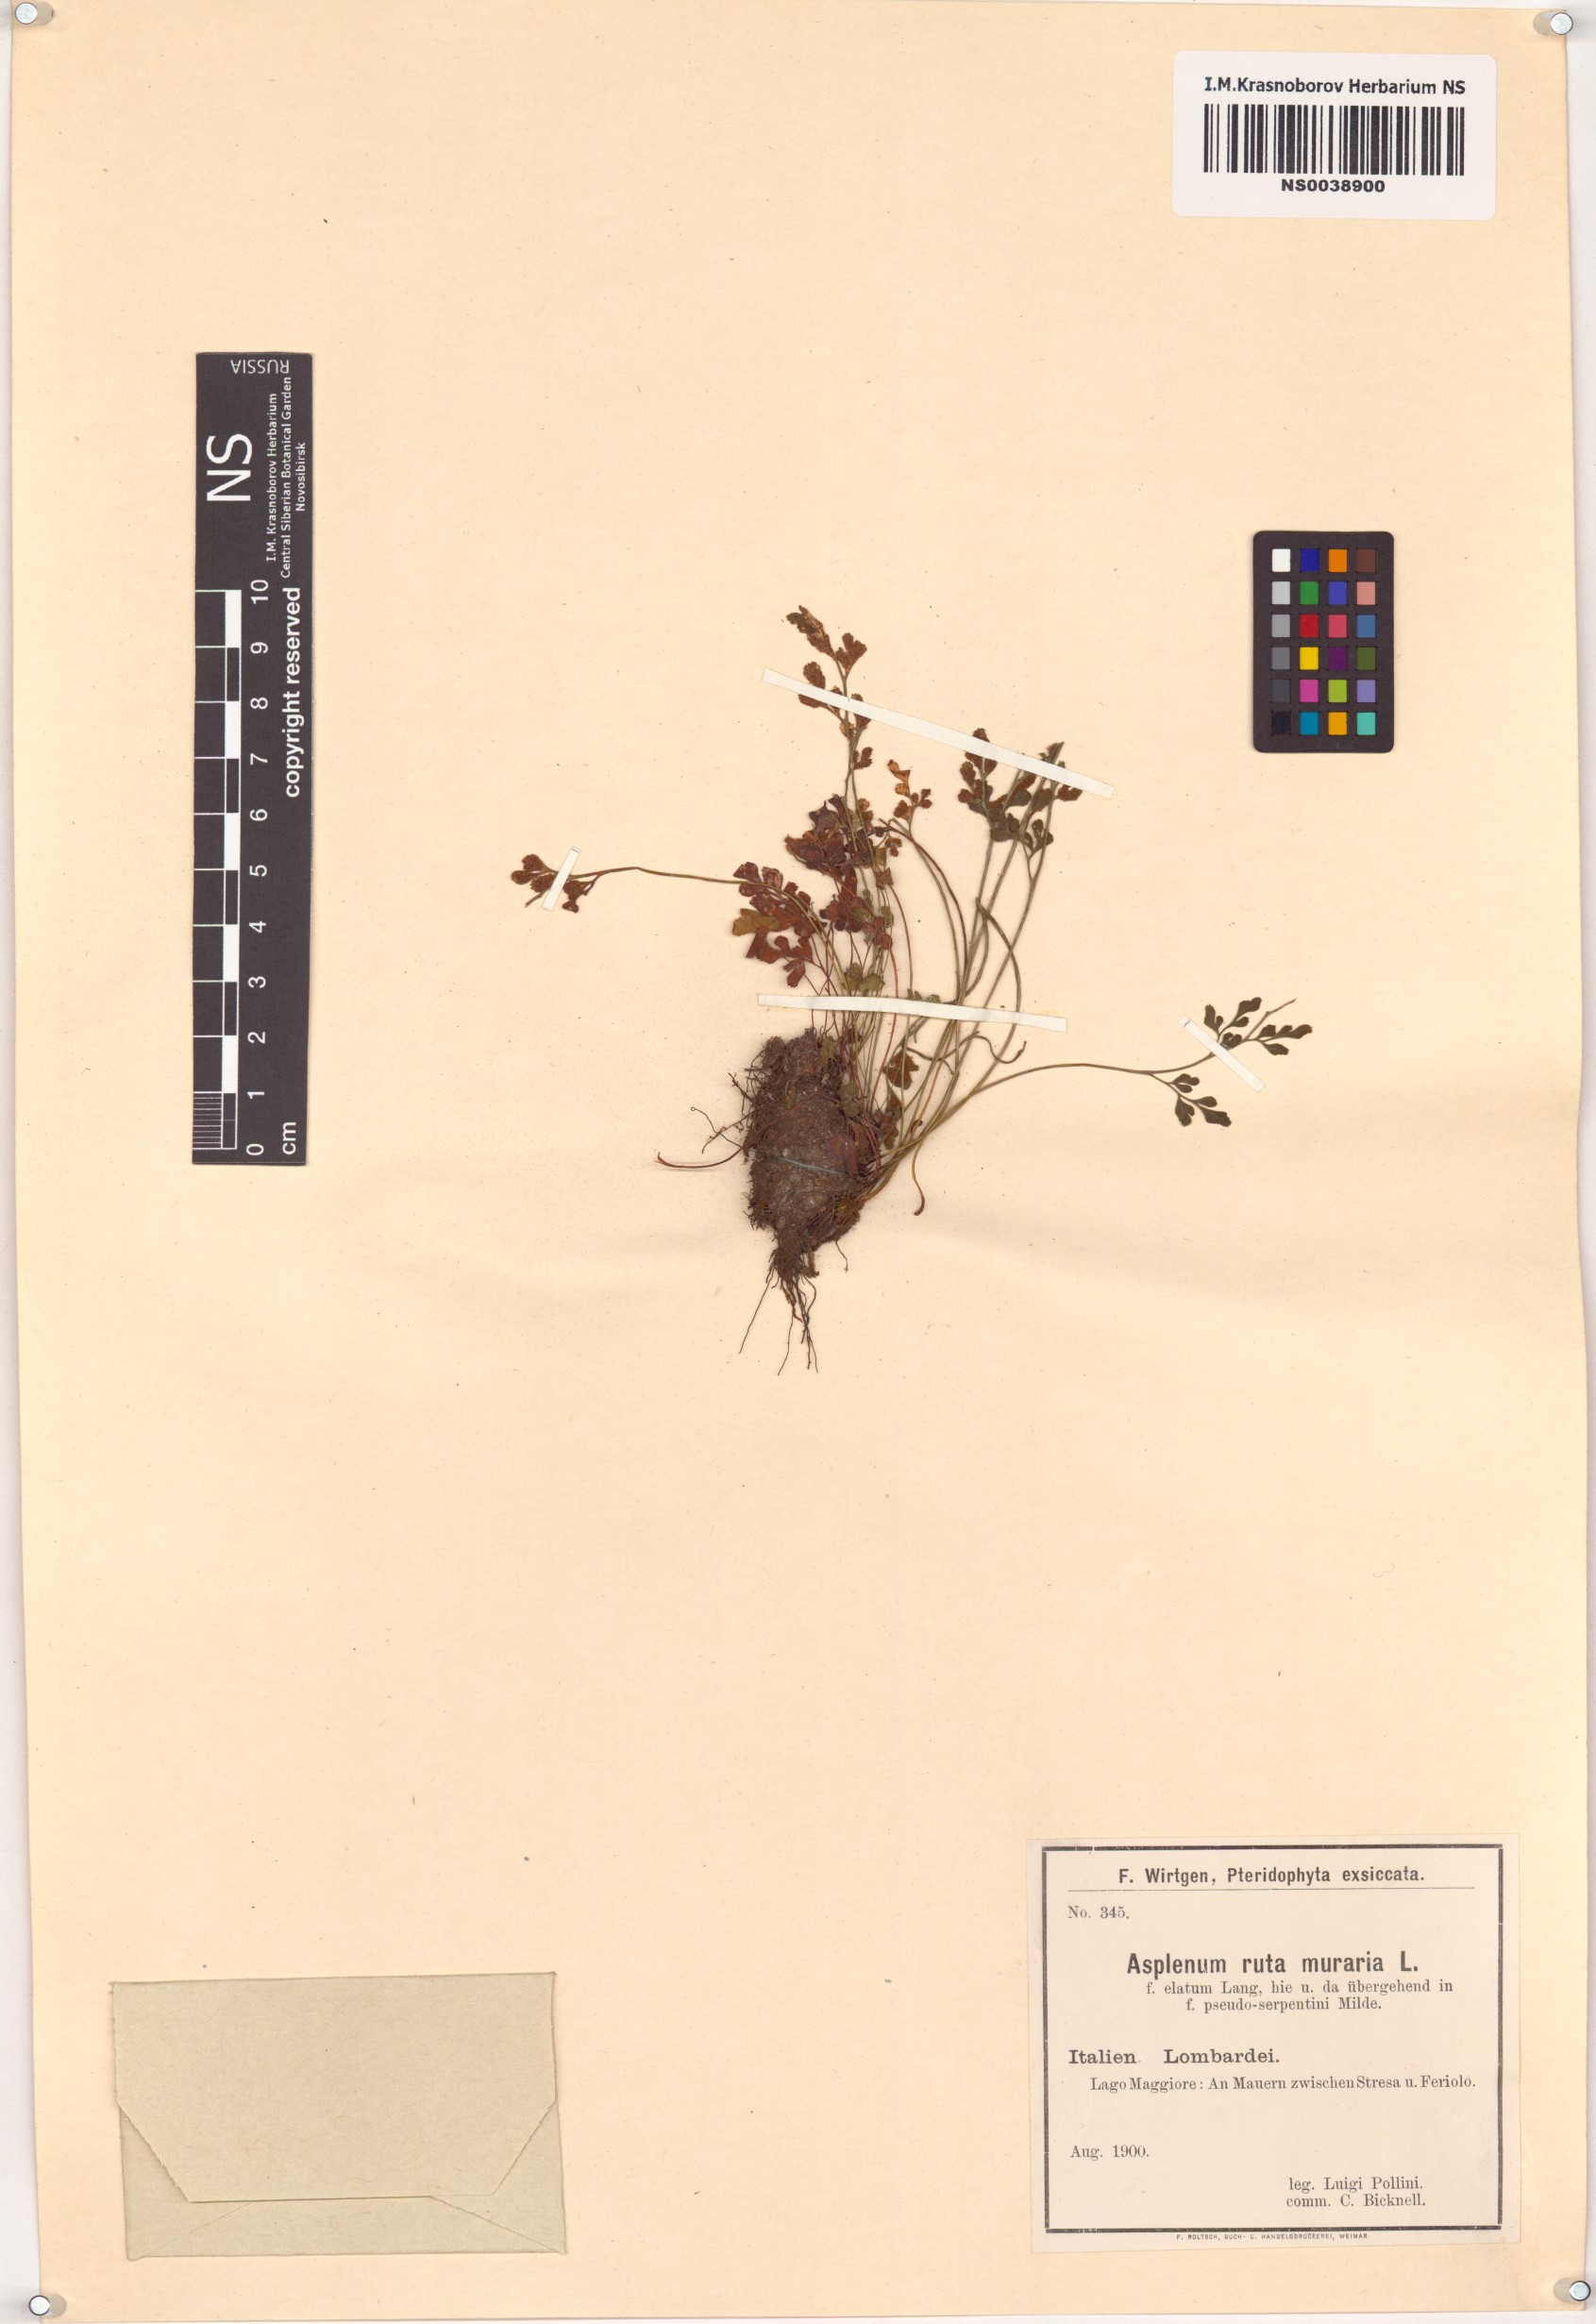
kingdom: Plantae
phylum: Tracheophyta
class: Polypodiopsida
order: Polypodiales
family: Aspleniaceae
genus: Asplenium
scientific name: Asplenium ruta-muraria
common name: Wall-rue
